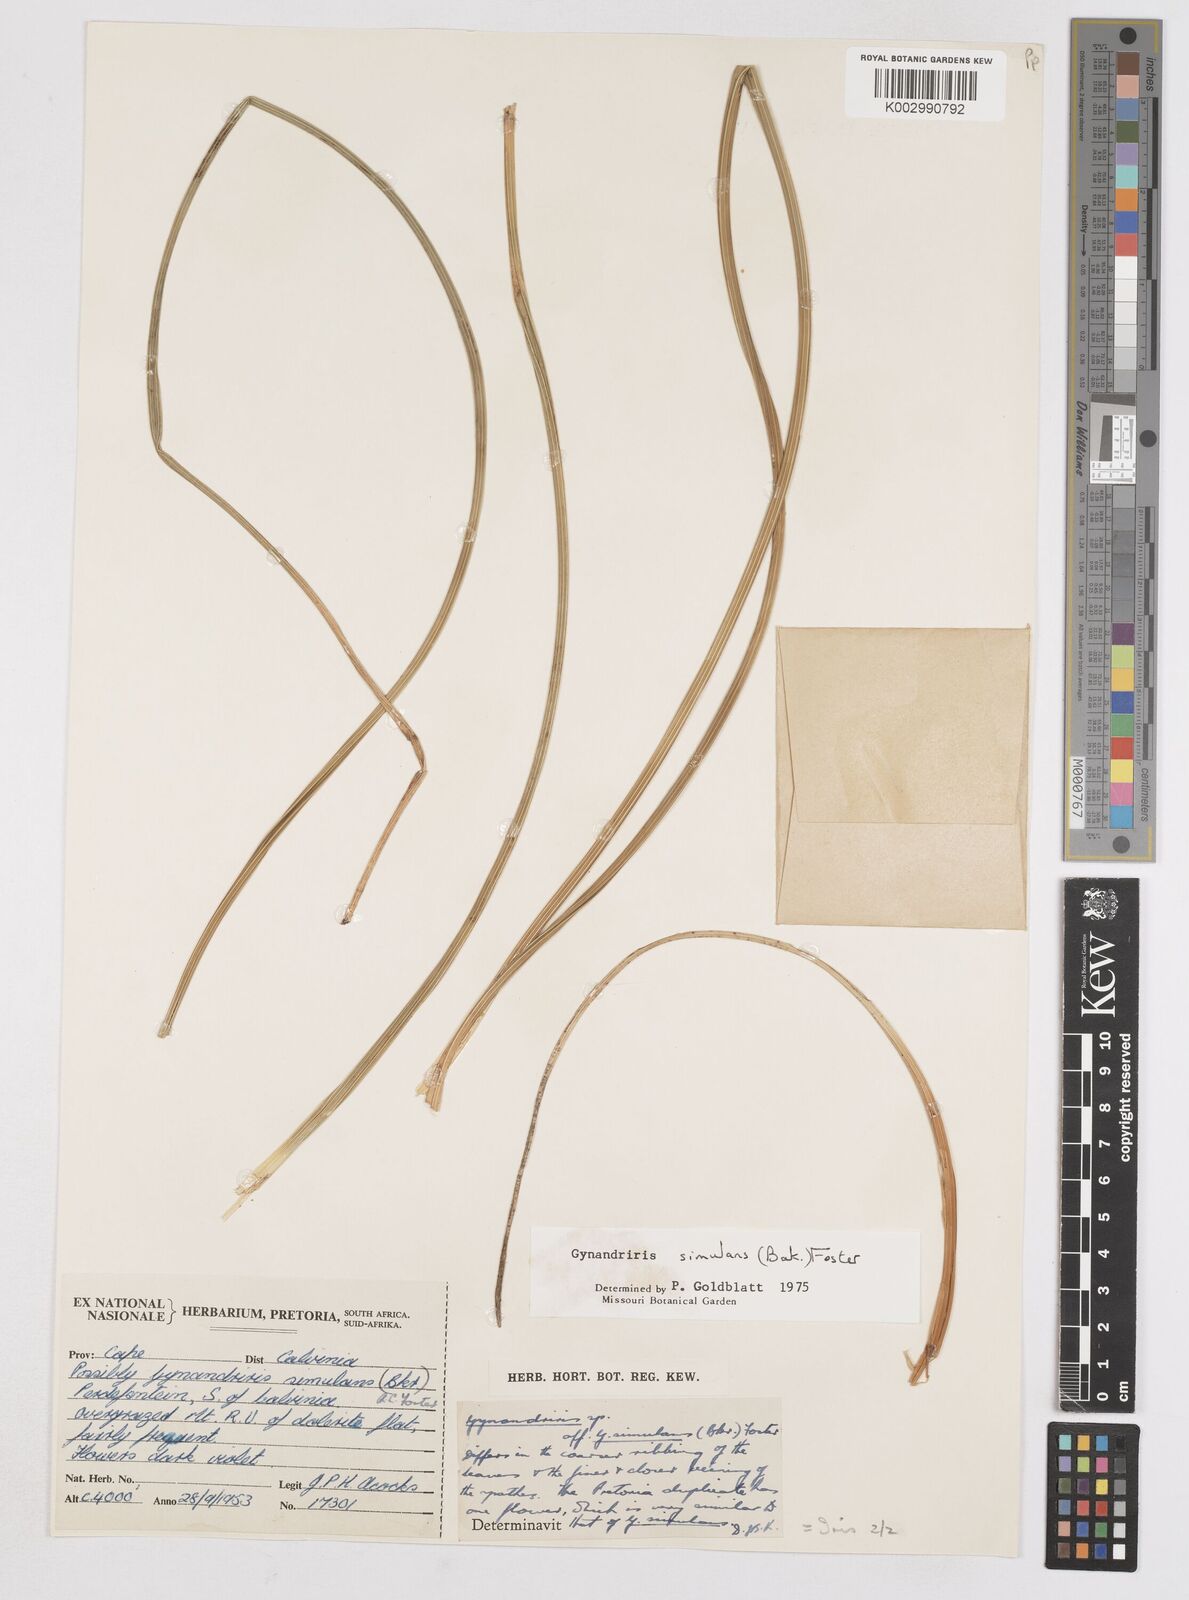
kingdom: Plantae
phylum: Tracheophyta
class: Liliopsida
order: Asparagales
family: Iridaceae
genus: Moraea
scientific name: Moraea simulans
